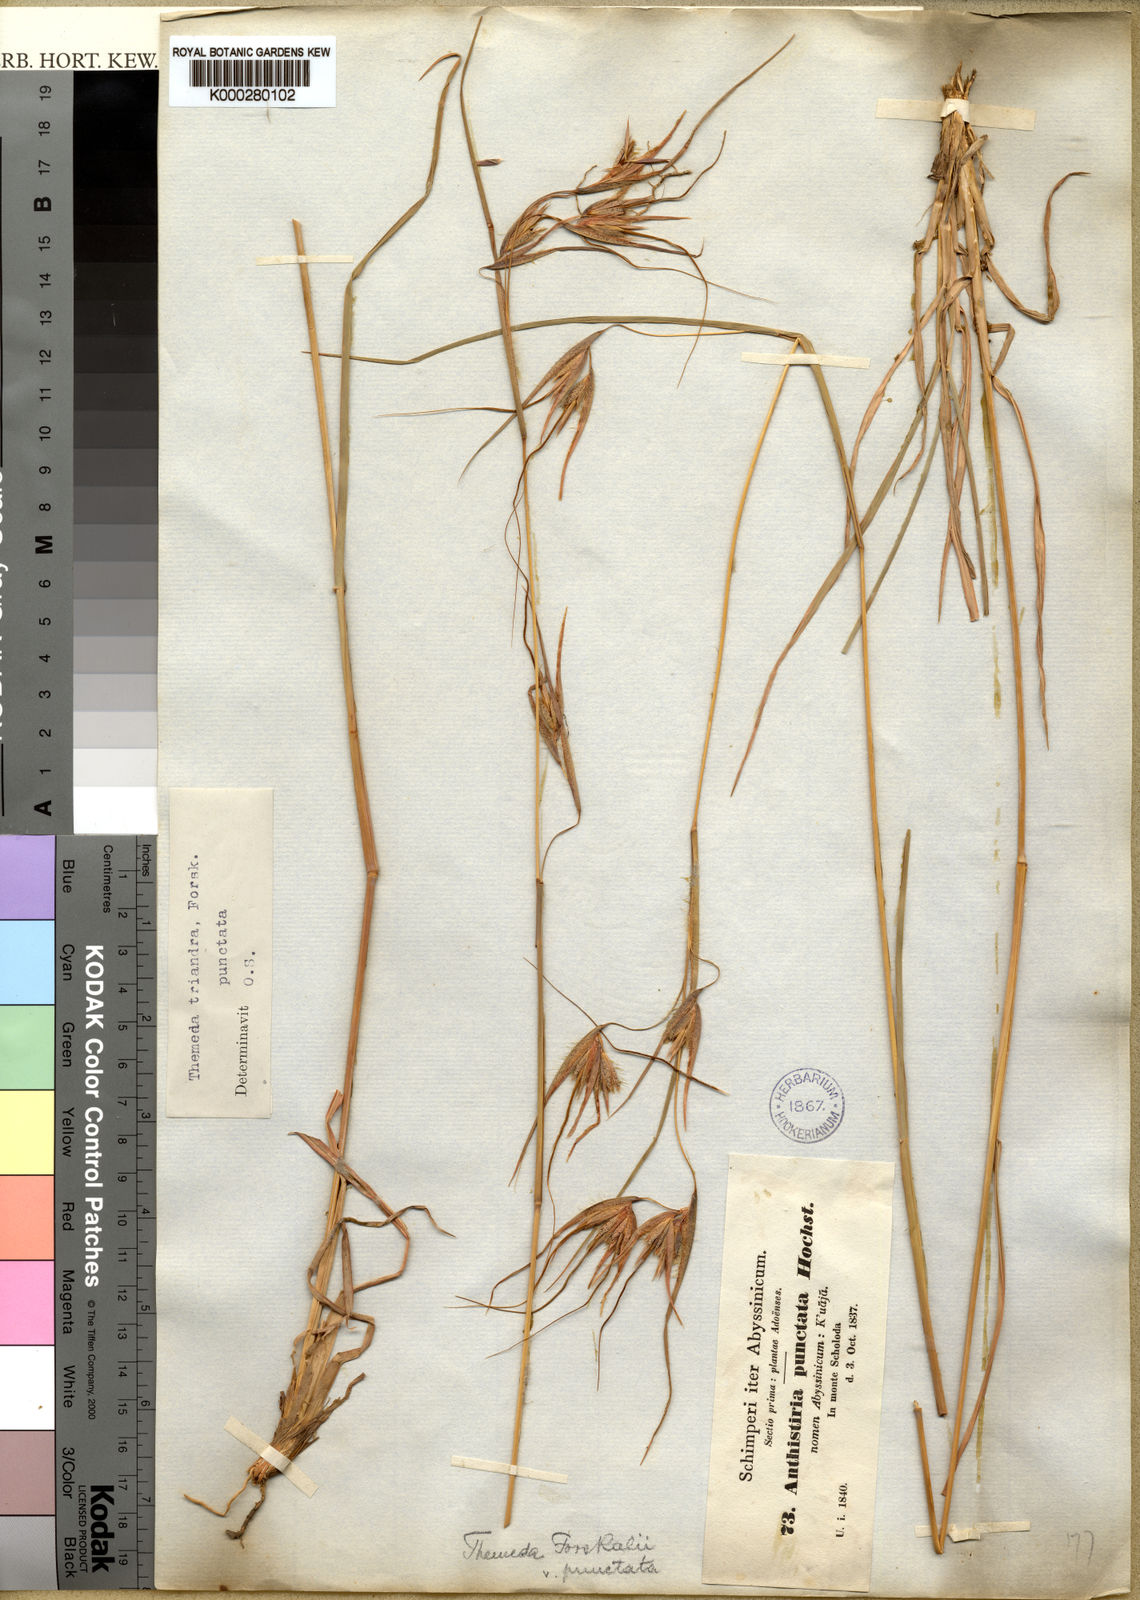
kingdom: Plantae
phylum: Tracheophyta
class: Liliopsida
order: Poales
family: Poaceae
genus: Themeda
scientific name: Themeda triandra
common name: Kangaroo grass
